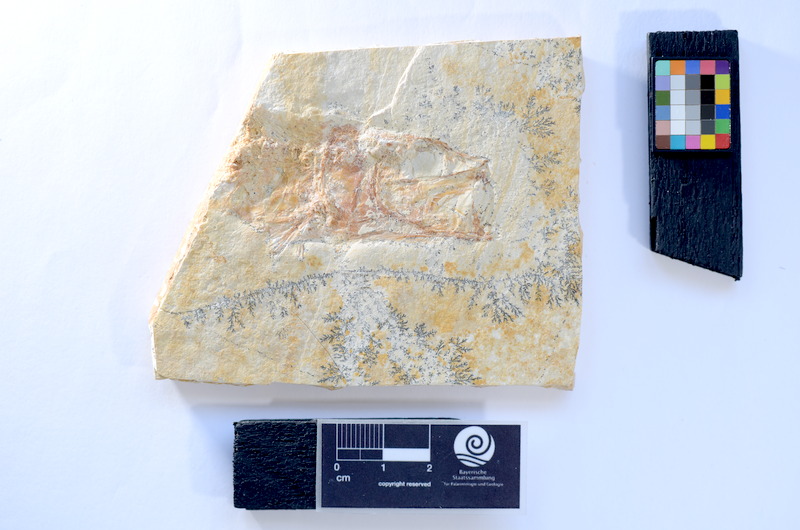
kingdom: Animalia
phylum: Chordata
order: Elopiformes
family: Anaethalionidae
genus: Anaethalion
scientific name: Anaethalion knorri
